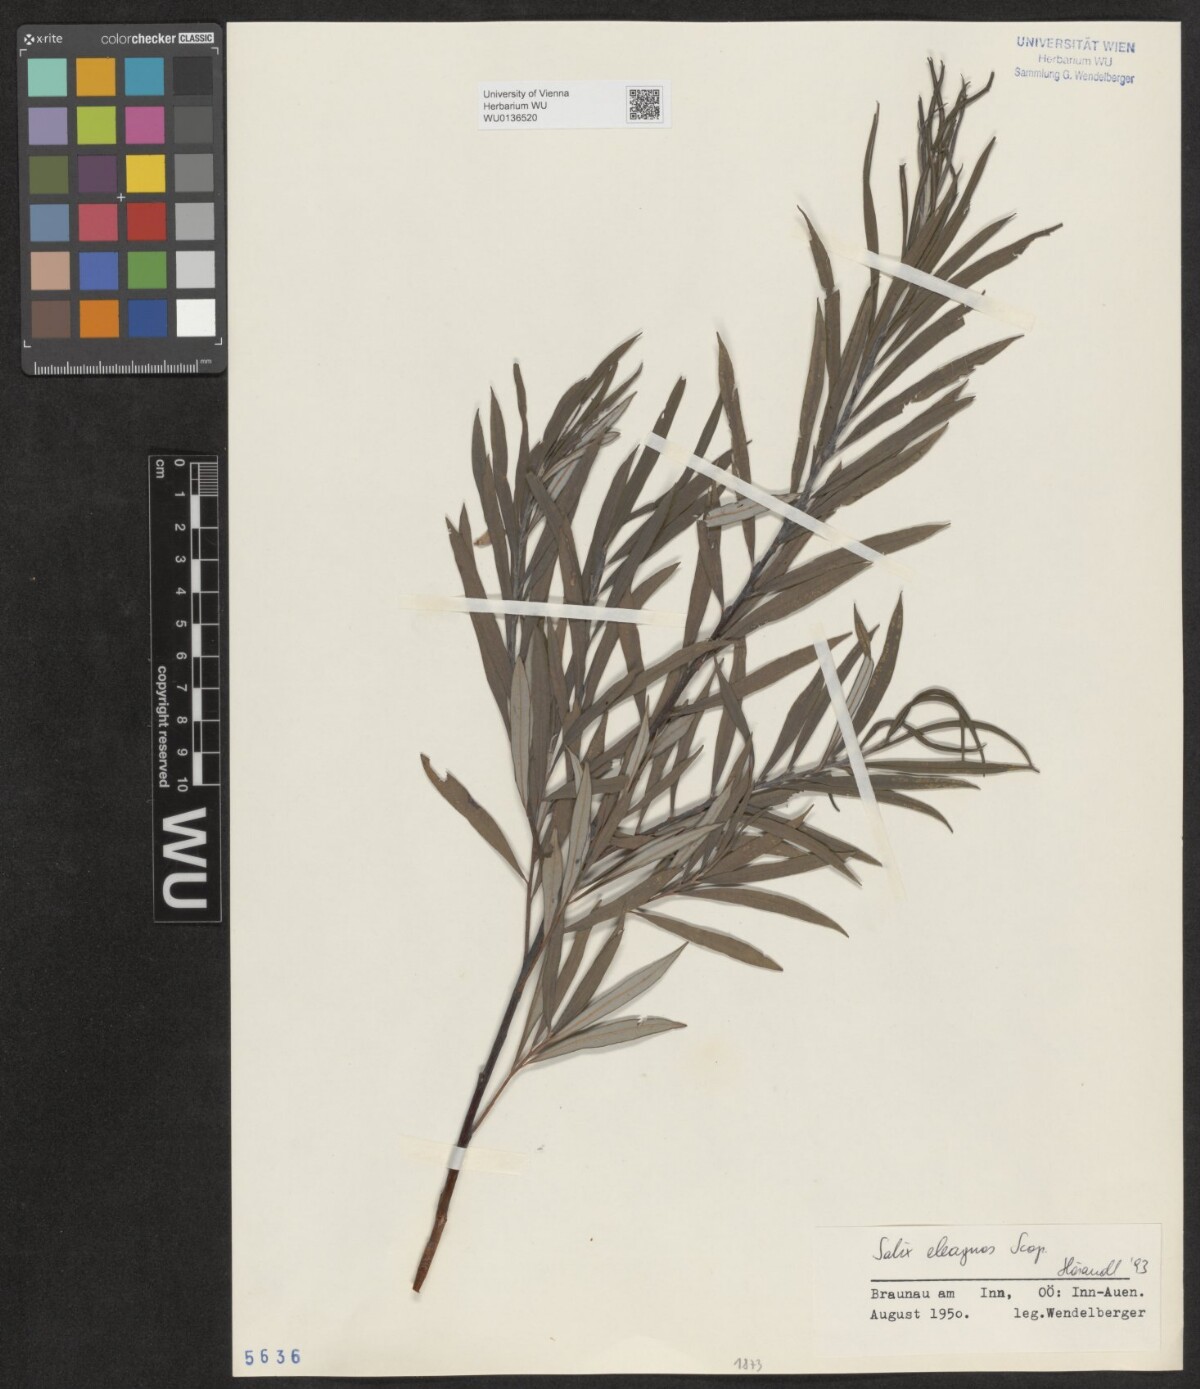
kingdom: Plantae
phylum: Tracheophyta
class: Magnoliopsida
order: Malpighiales
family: Salicaceae
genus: Salix
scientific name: Salix eleagnos
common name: Elaeagnus willow
